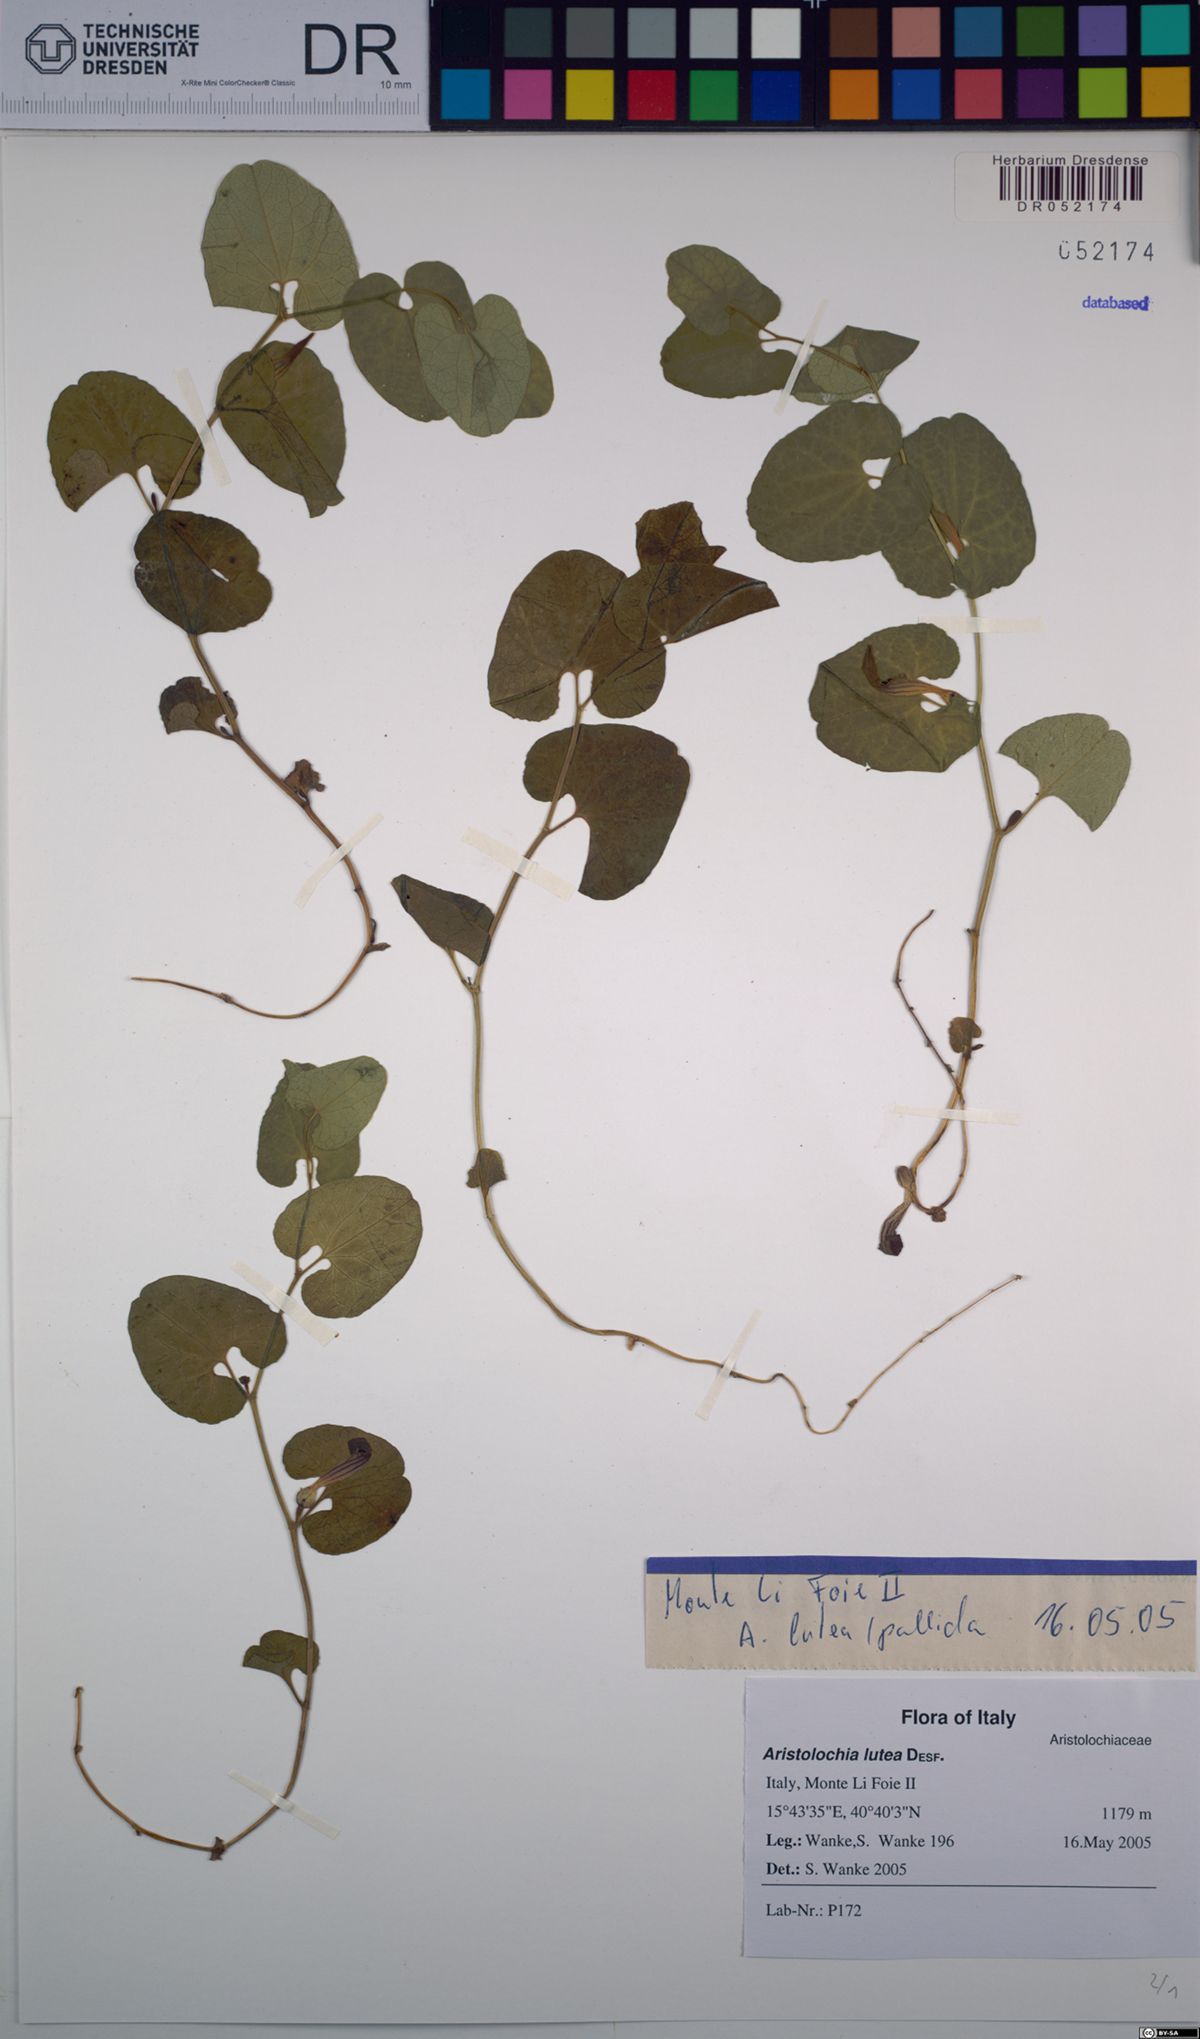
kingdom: Plantae
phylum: Tracheophyta
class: Magnoliopsida
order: Piperales
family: Aristolochiaceae
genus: Aristolochia
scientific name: Aristolochia lutea
